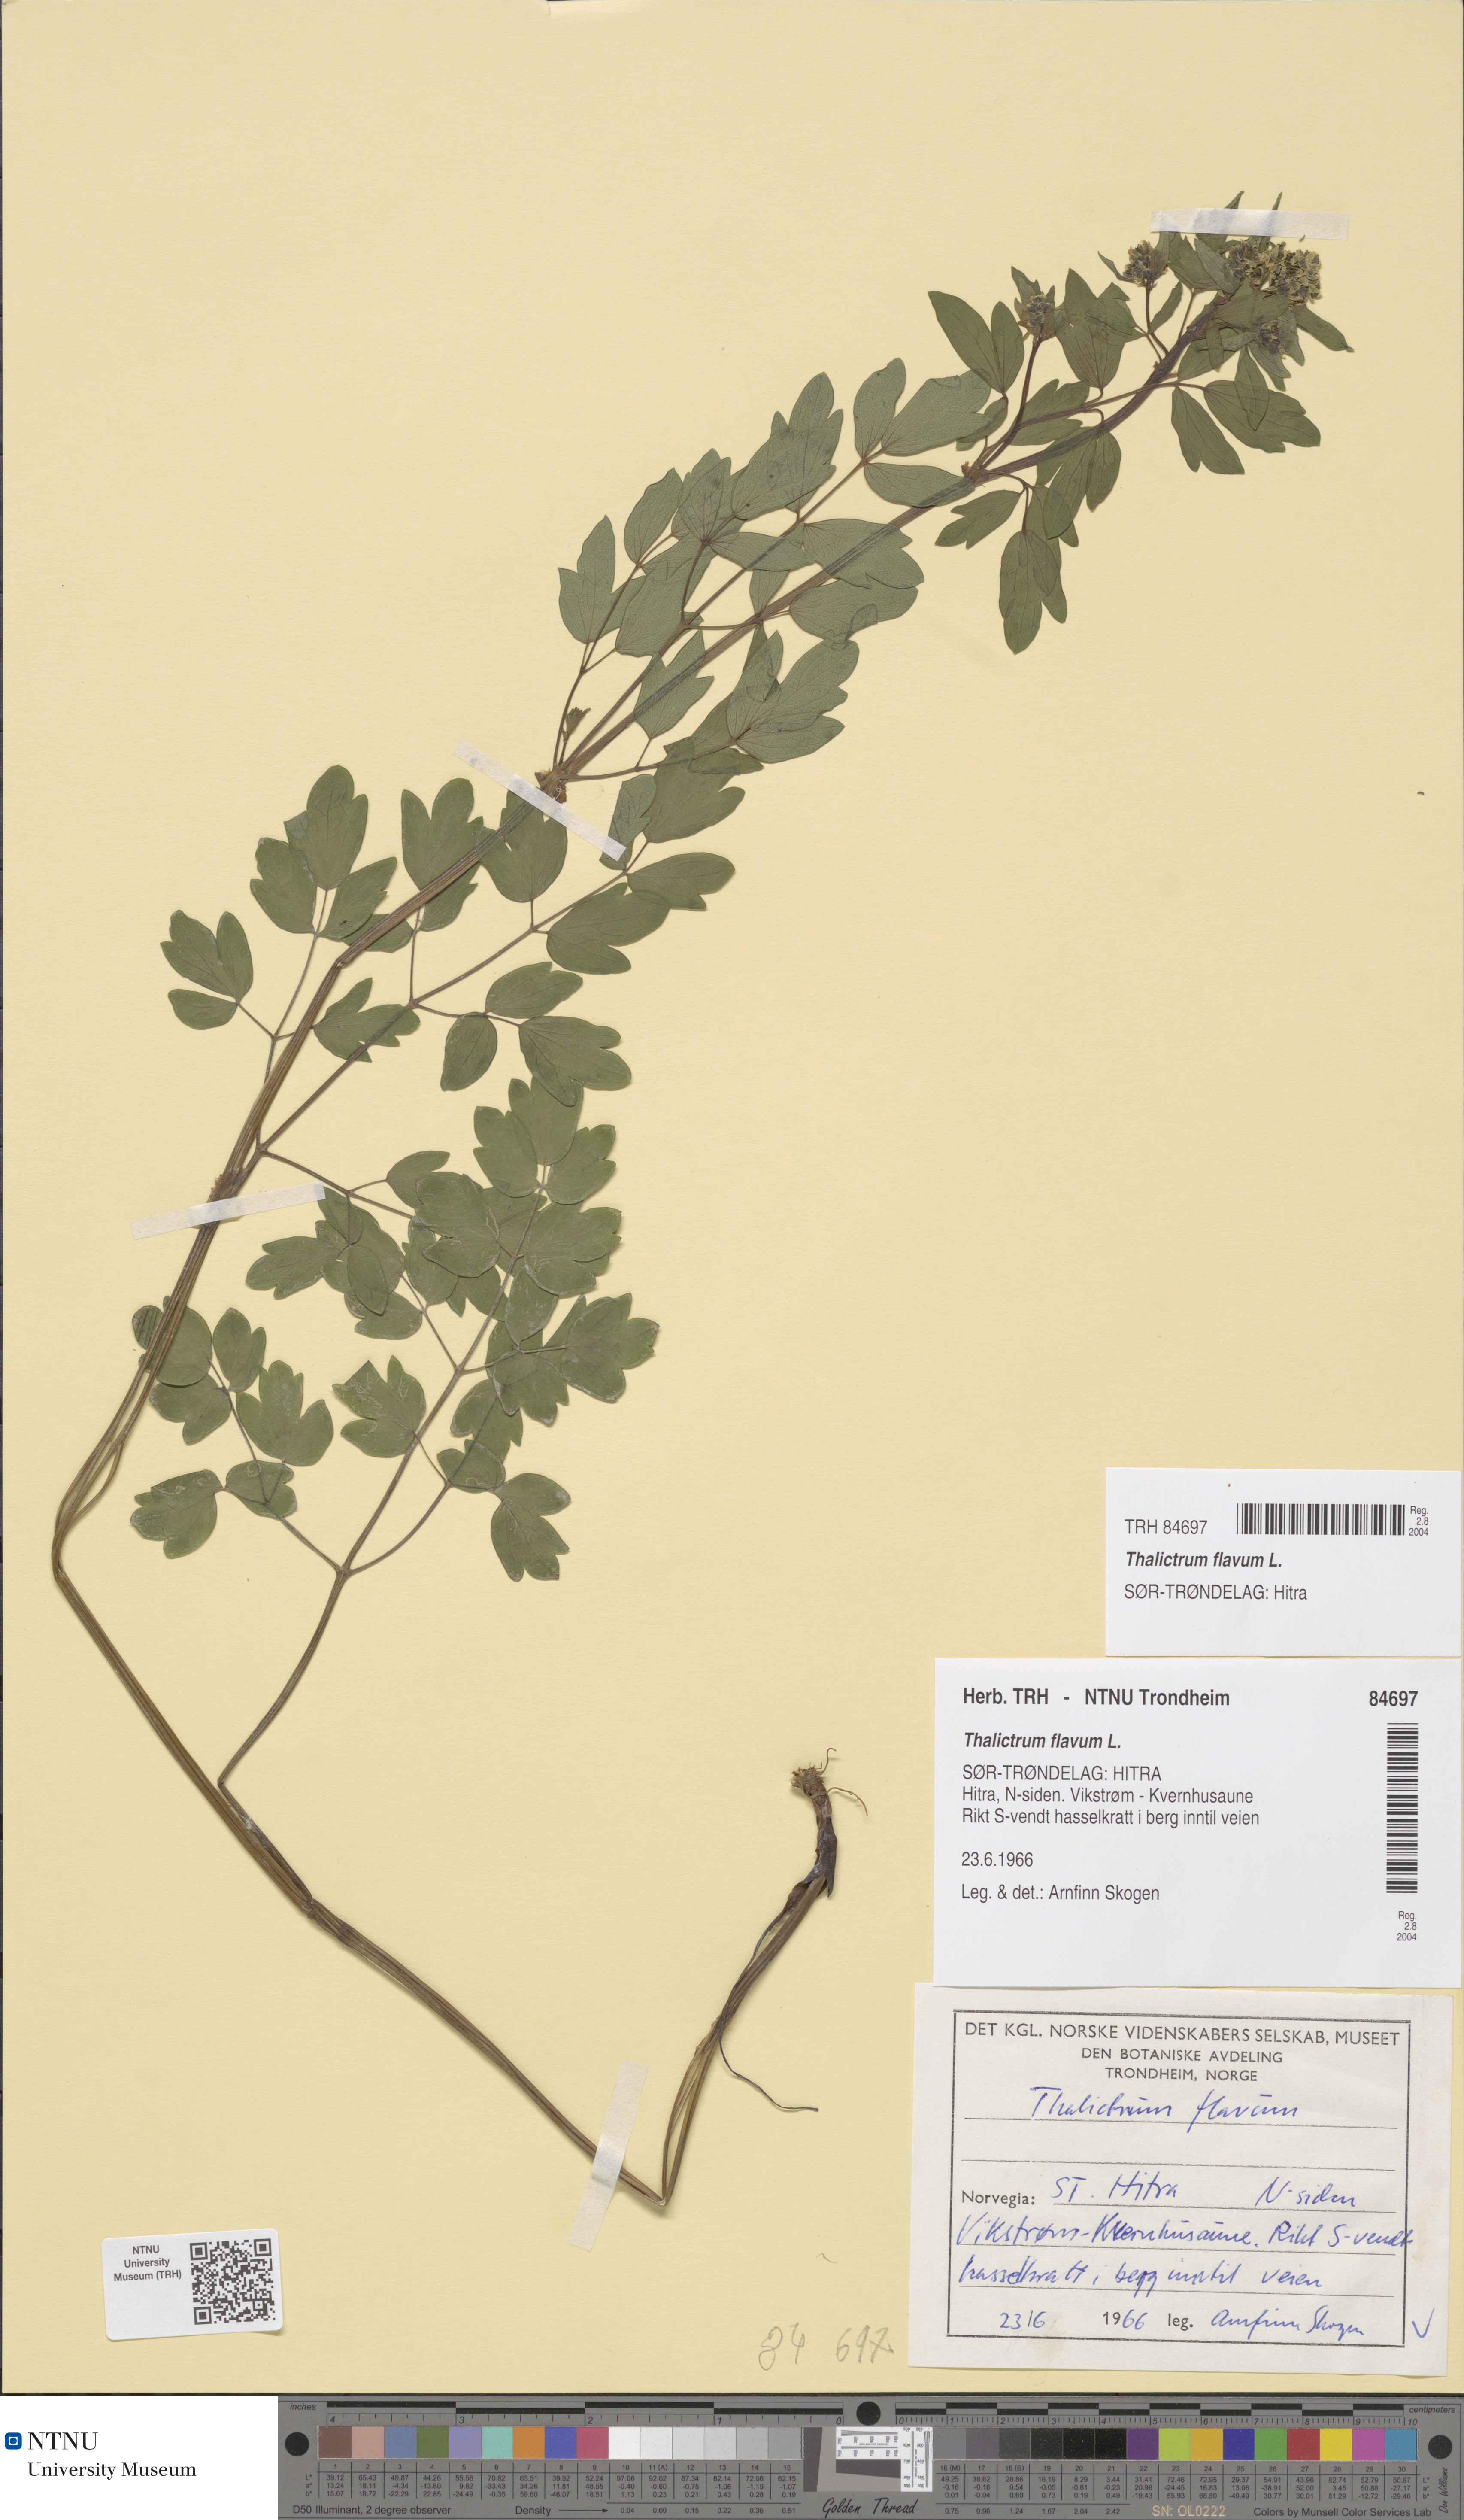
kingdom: Plantae
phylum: Tracheophyta
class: Magnoliopsida
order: Ranunculales
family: Ranunculaceae
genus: Thalictrum
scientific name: Thalictrum flavum
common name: Common meadow-rue
